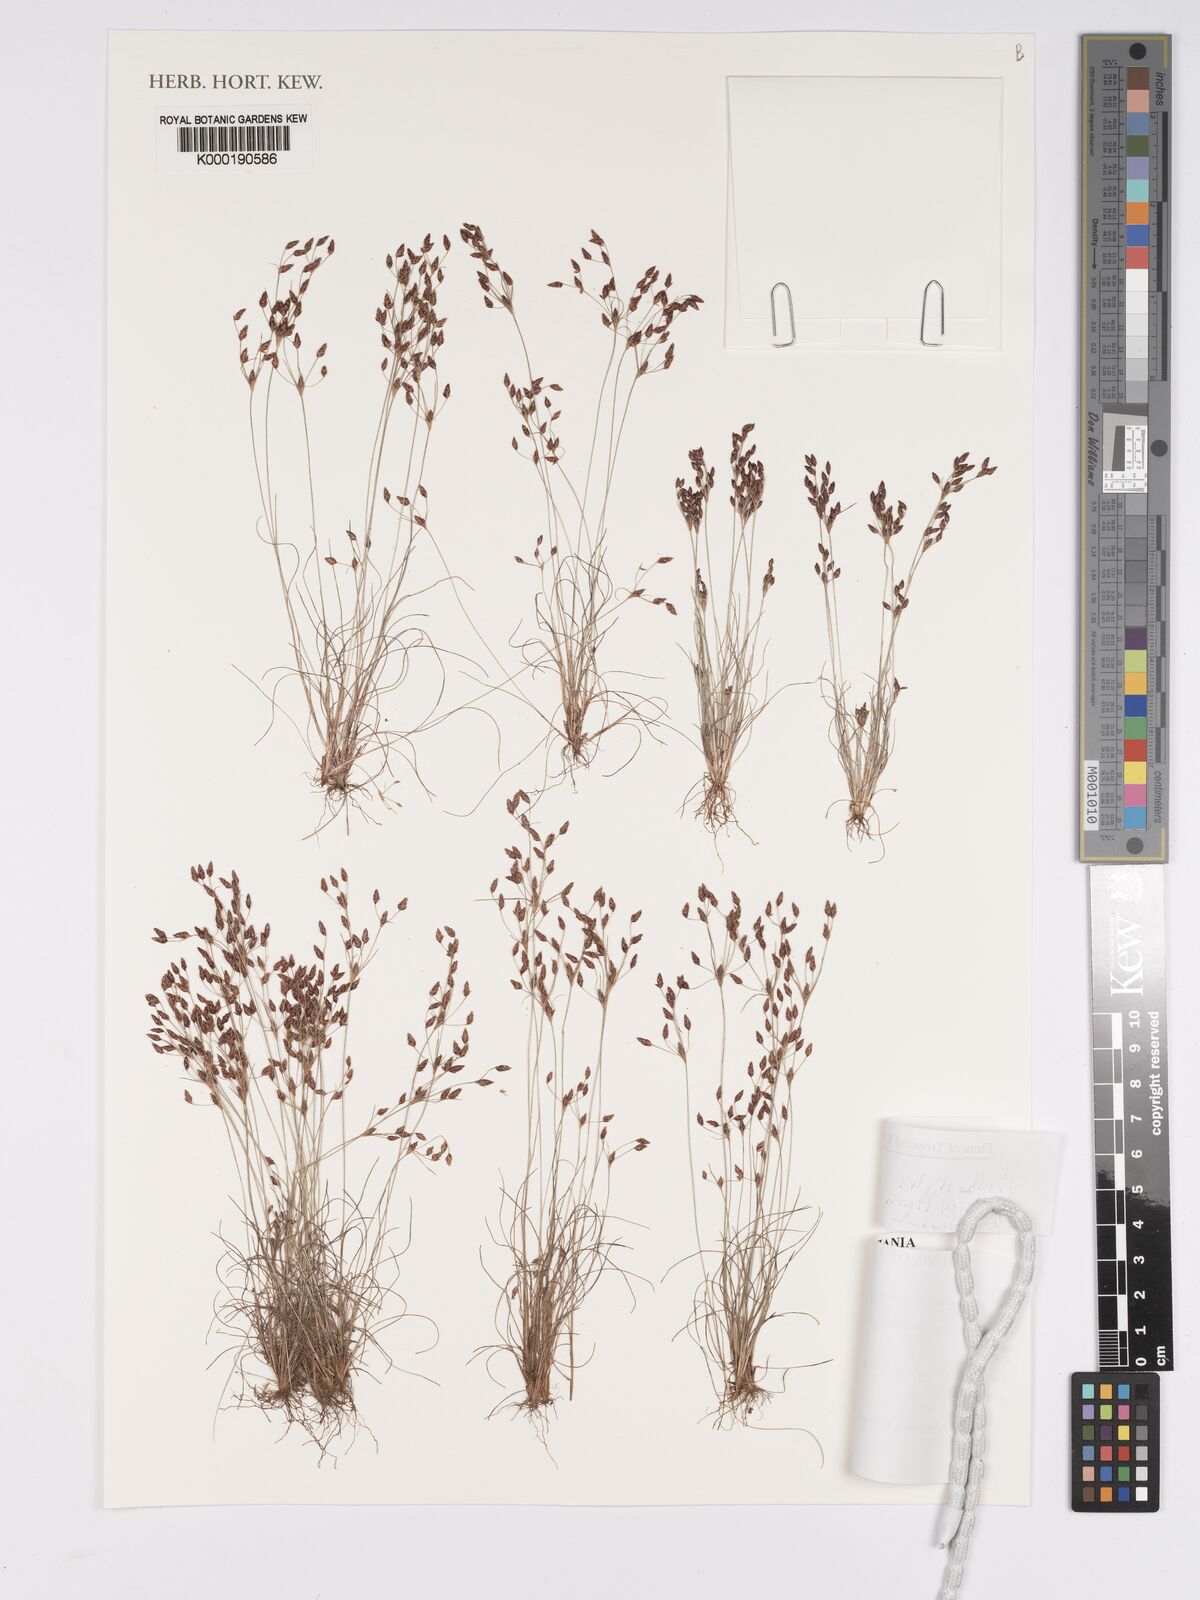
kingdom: Plantae
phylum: Tracheophyta
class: Liliopsida
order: Poales
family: Cyperaceae
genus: Bulbostylis
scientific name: Bulbostylis tanzaniae
